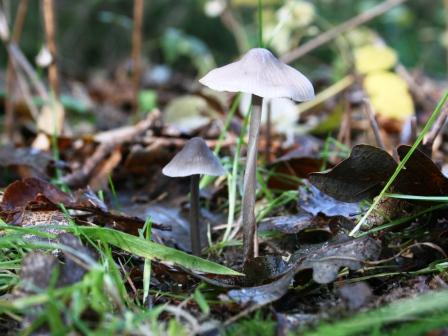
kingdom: Fungi
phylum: Basidiomycota
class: Agaricomycetes
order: Agaricales
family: Mycenaceae
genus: Mycena
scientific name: Mycena polygramma
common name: mangestribet huesvamp
